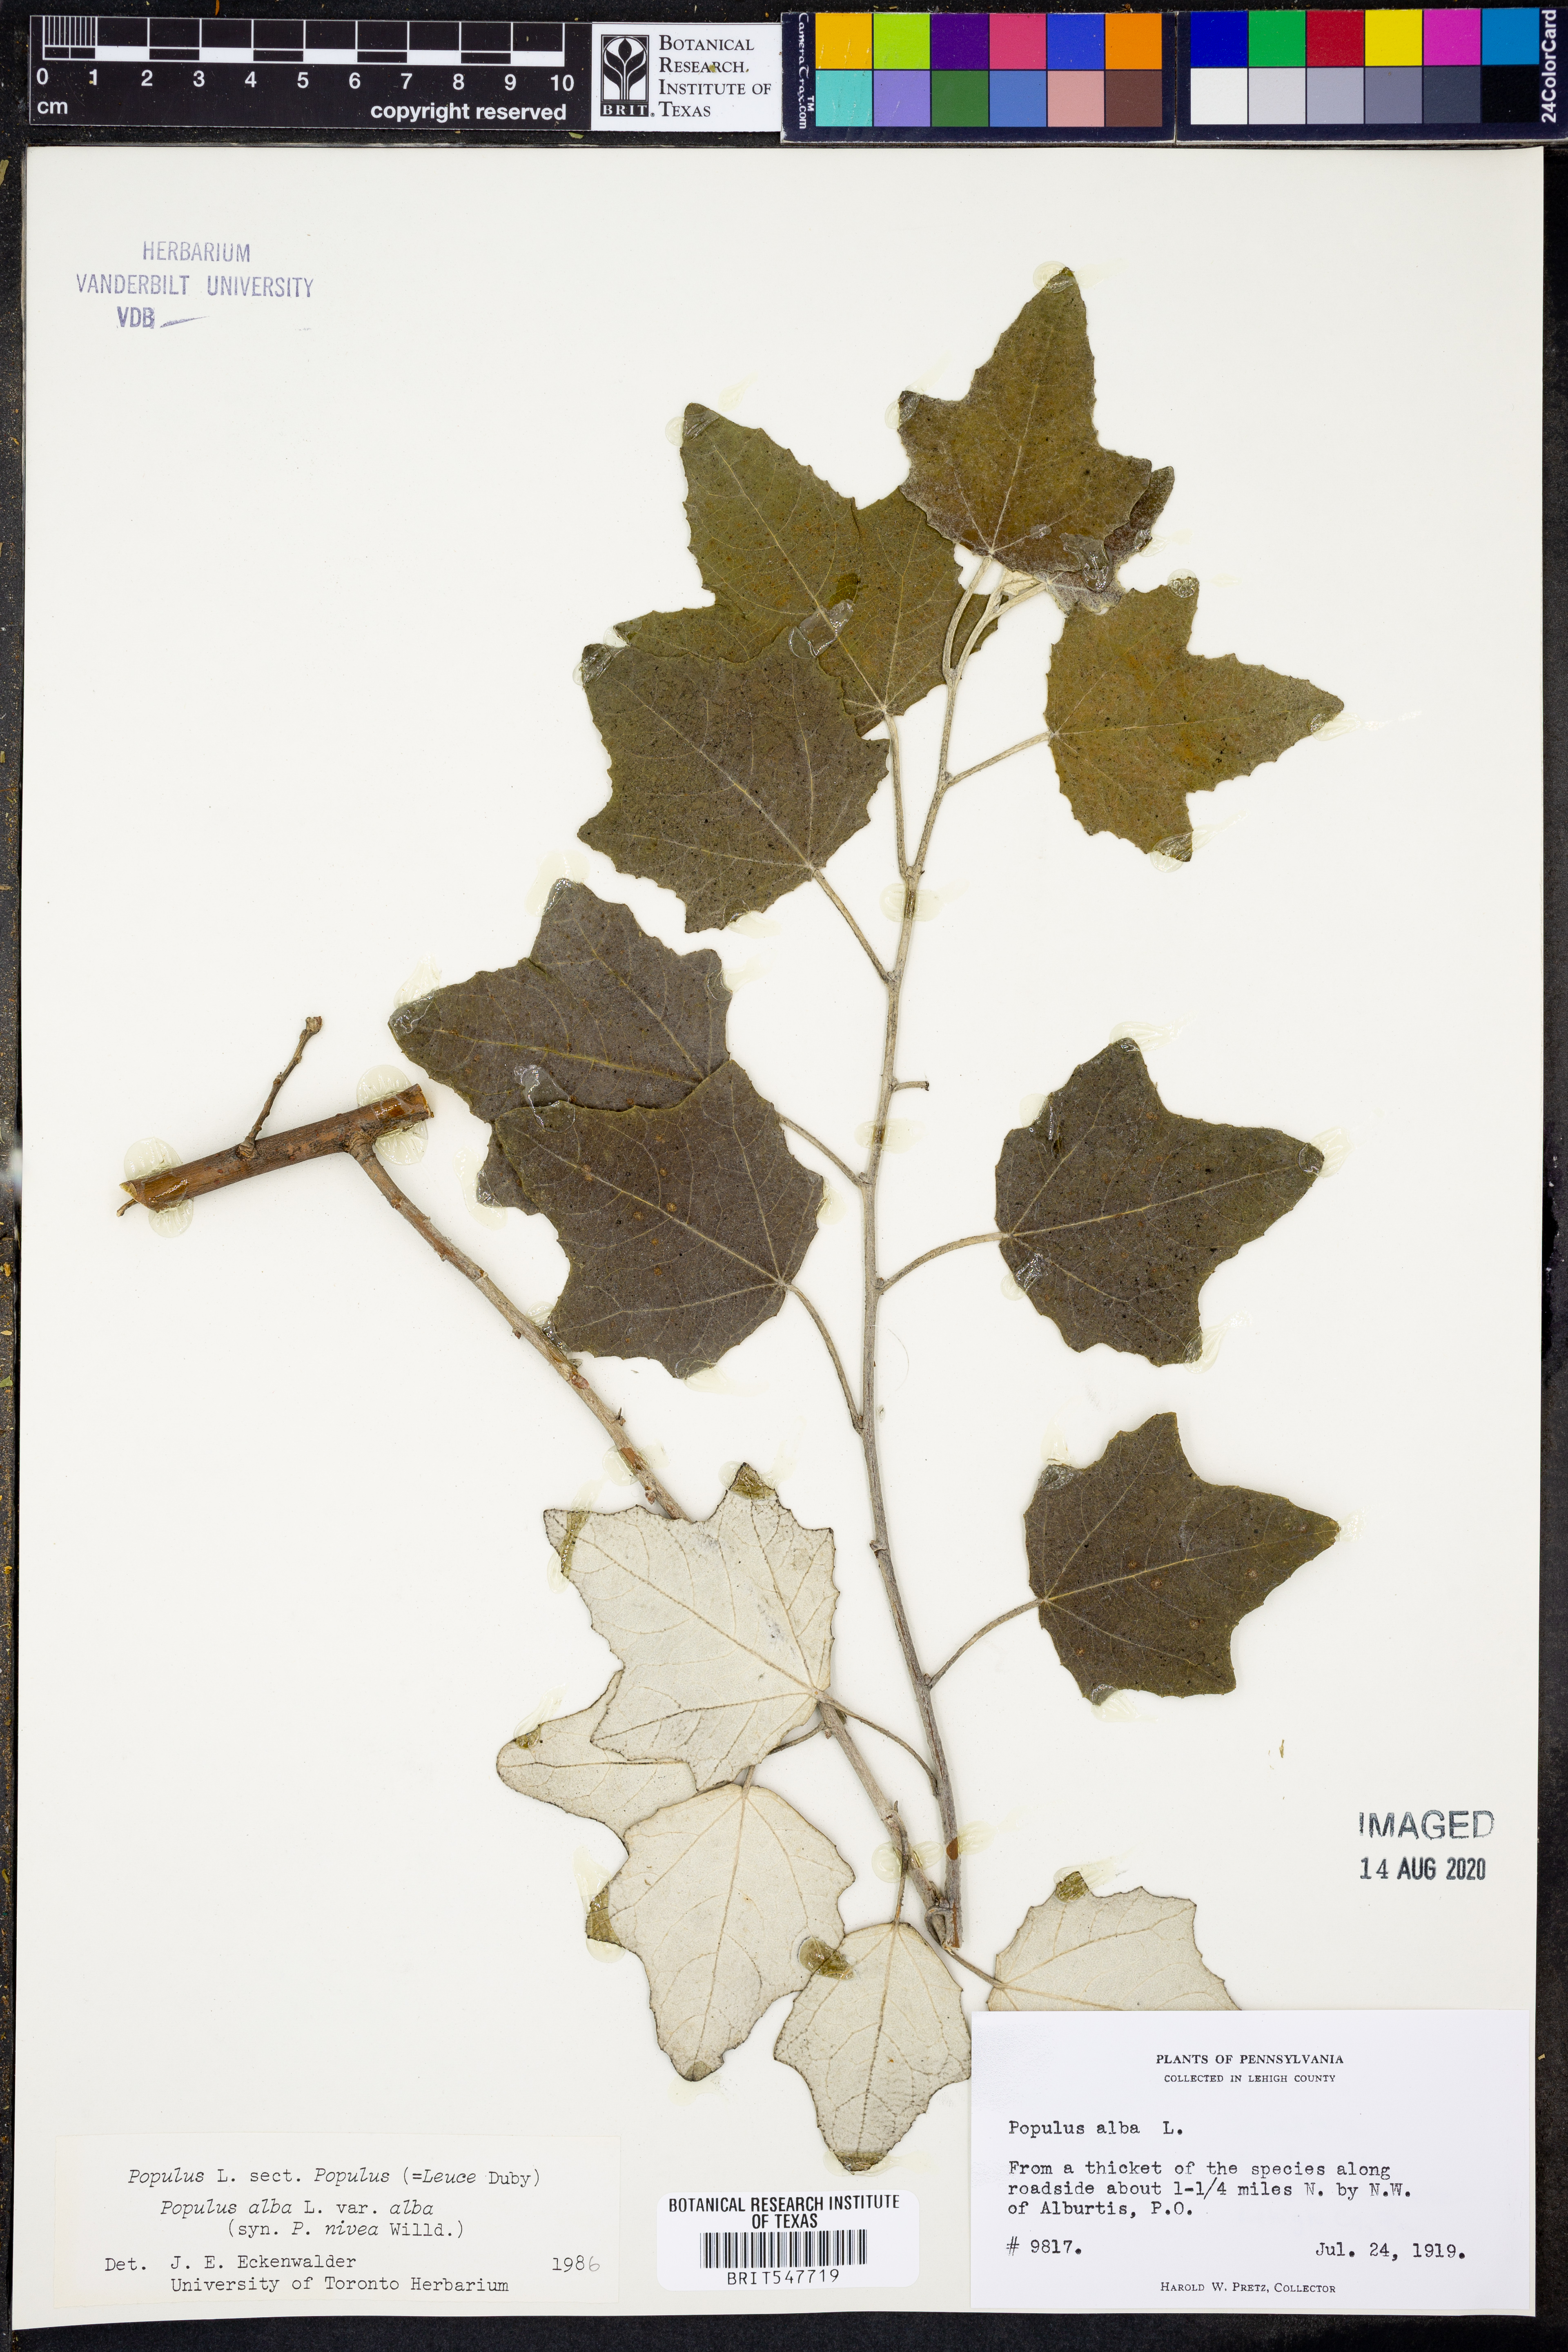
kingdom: Plantae
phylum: Tracheophyta
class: Magnoliopsida
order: Malpighiales
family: Salicaceae
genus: Populus
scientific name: Populus alba
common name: White poplar
